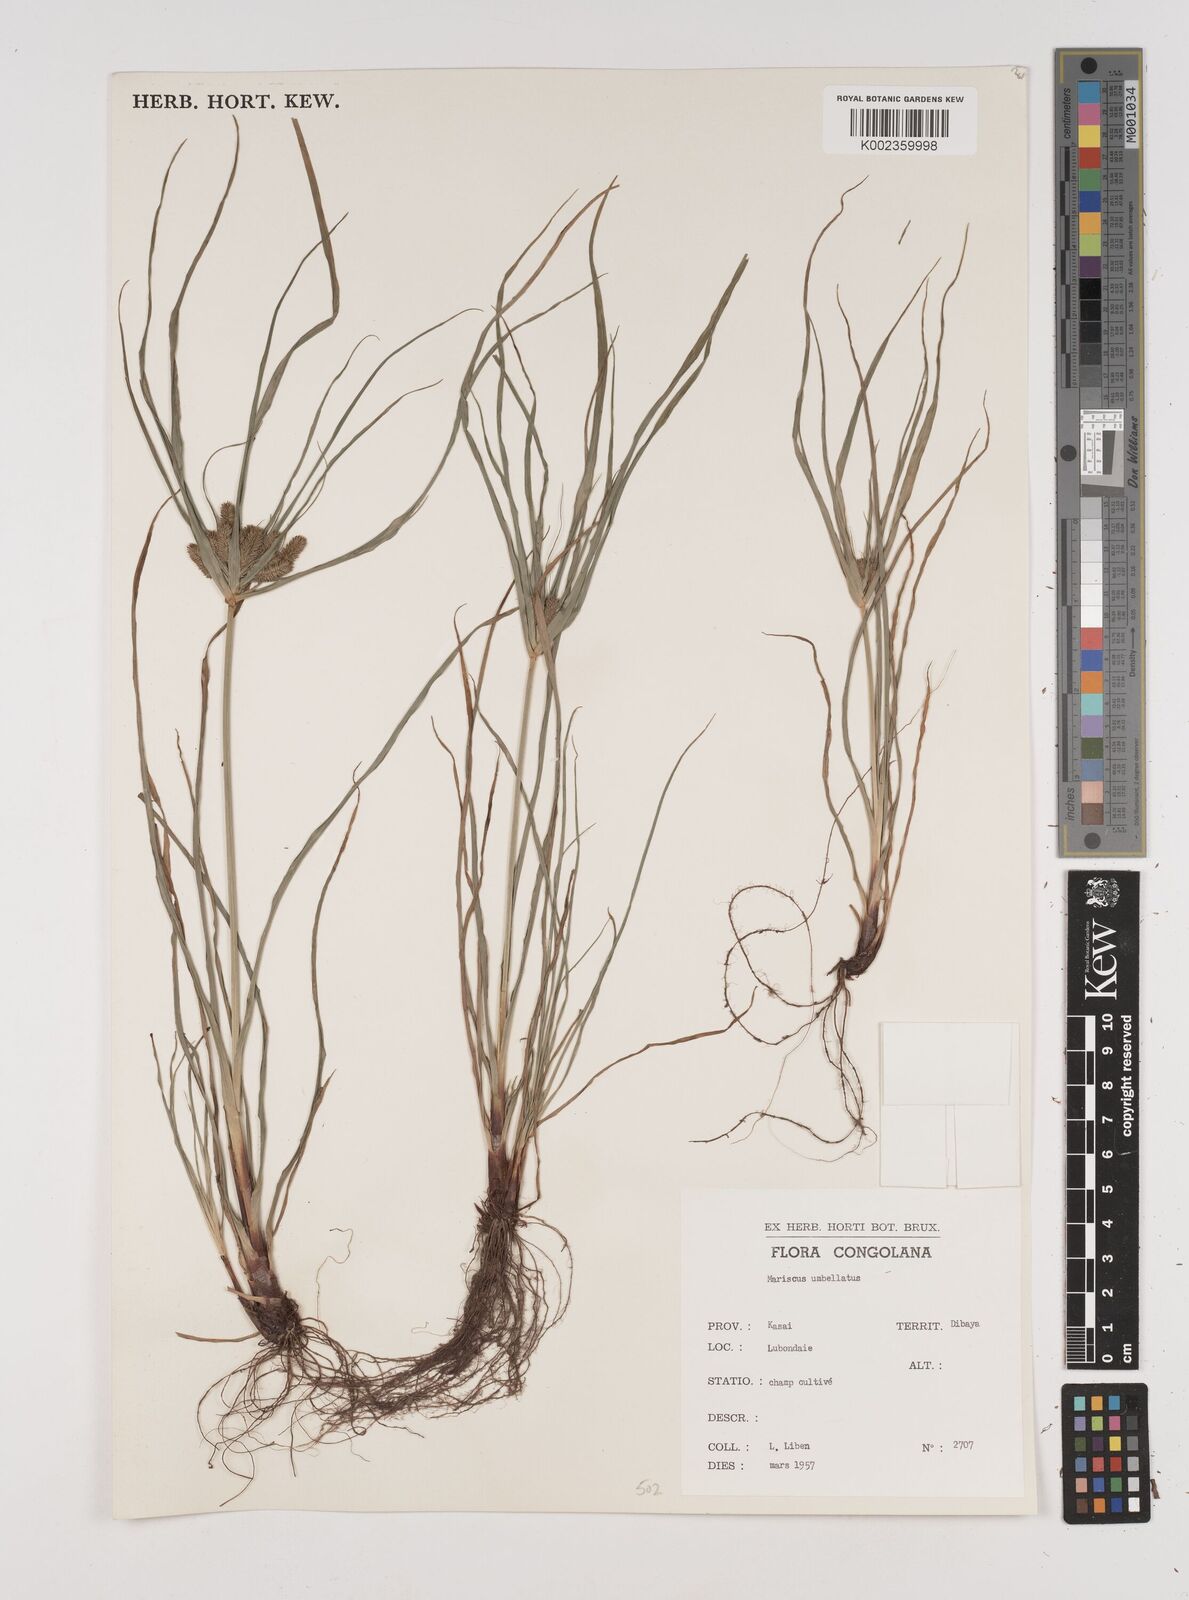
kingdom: Plantae
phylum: Tracheophyta
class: Liliopsida
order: Poales
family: Cyperaceae
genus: Cyperus
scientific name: Cyperus cyperoides
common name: Pacific island flat sedge
